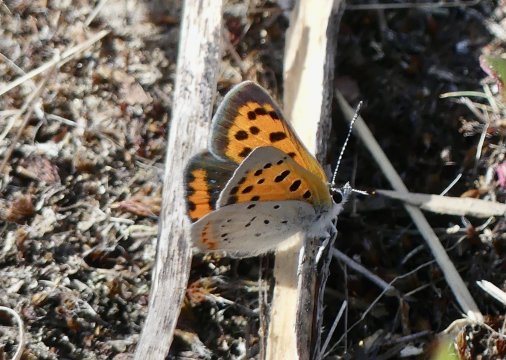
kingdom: Animalia
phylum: Arthropoda
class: Insecta
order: Lepidoptera
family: Lycaenidae
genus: Lycaena
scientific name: Lycaena phlaeas
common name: American Copper
